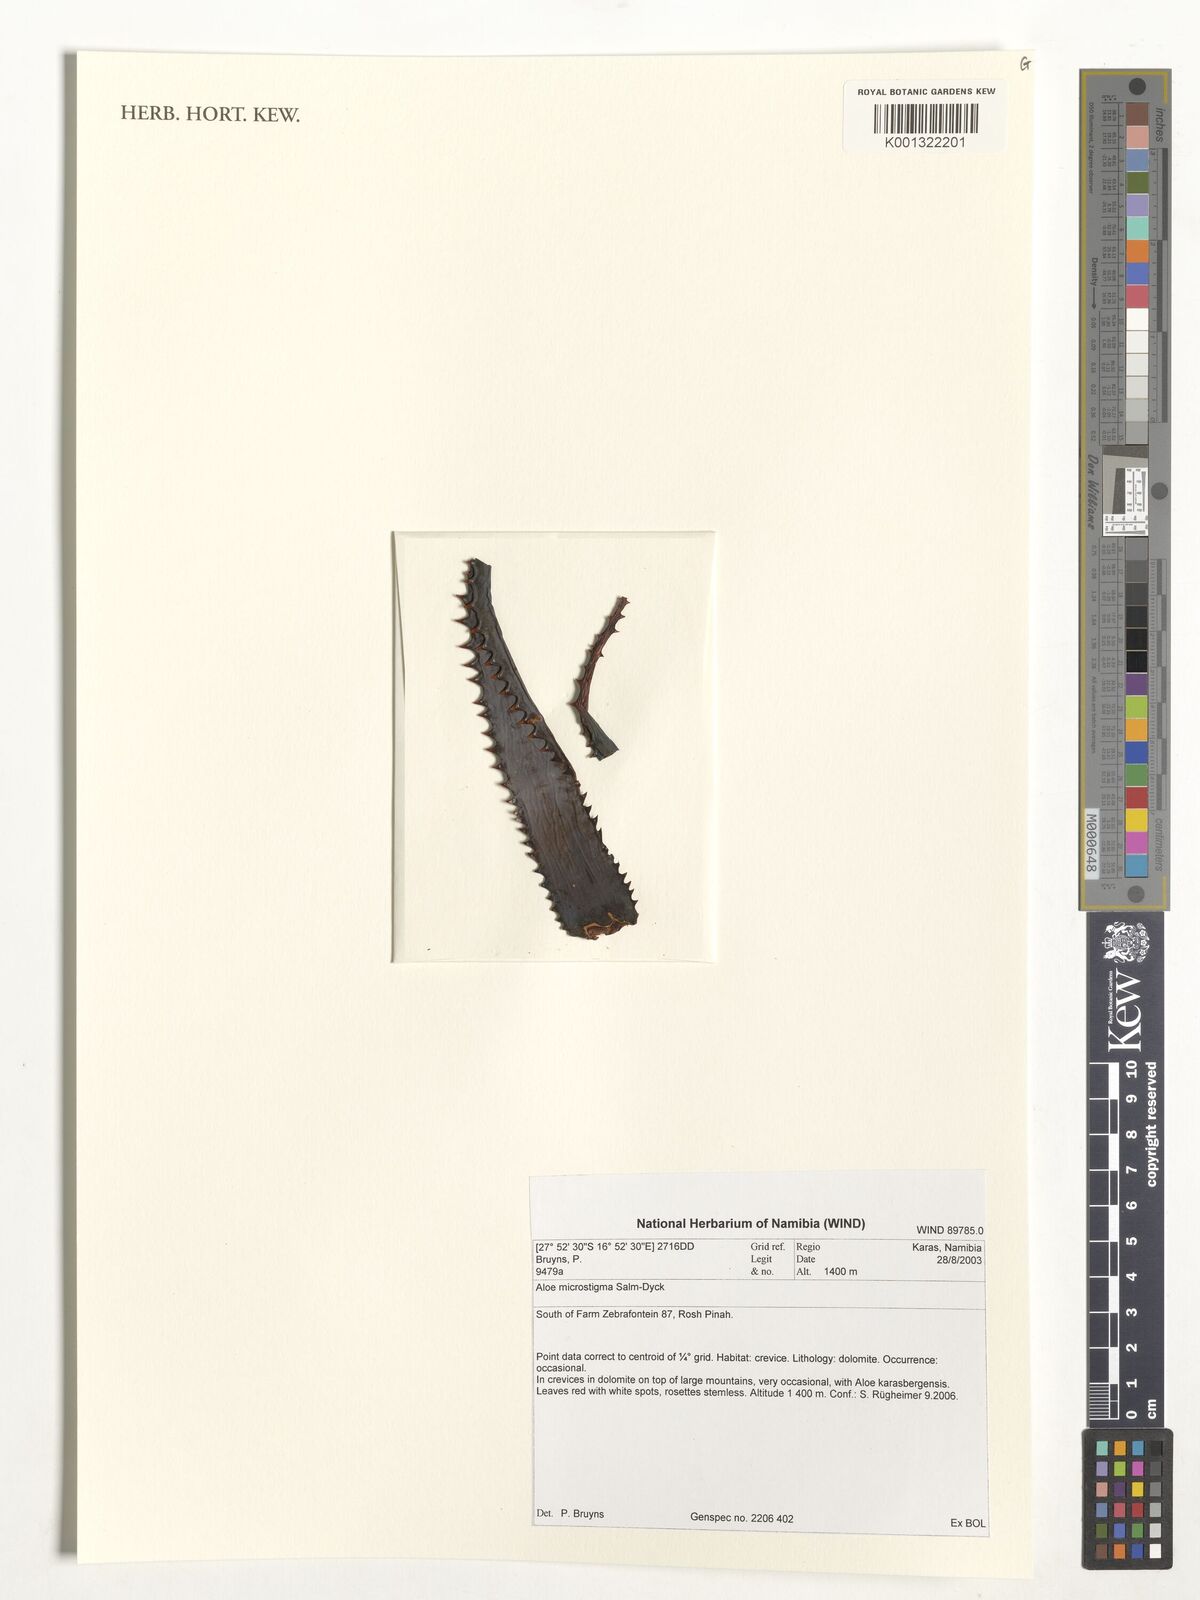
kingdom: Plantae
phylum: Tracheophyta
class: Liliopsida
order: Asparagales
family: Asphodelaceae
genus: Aloe
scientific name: Aloe microstigma
